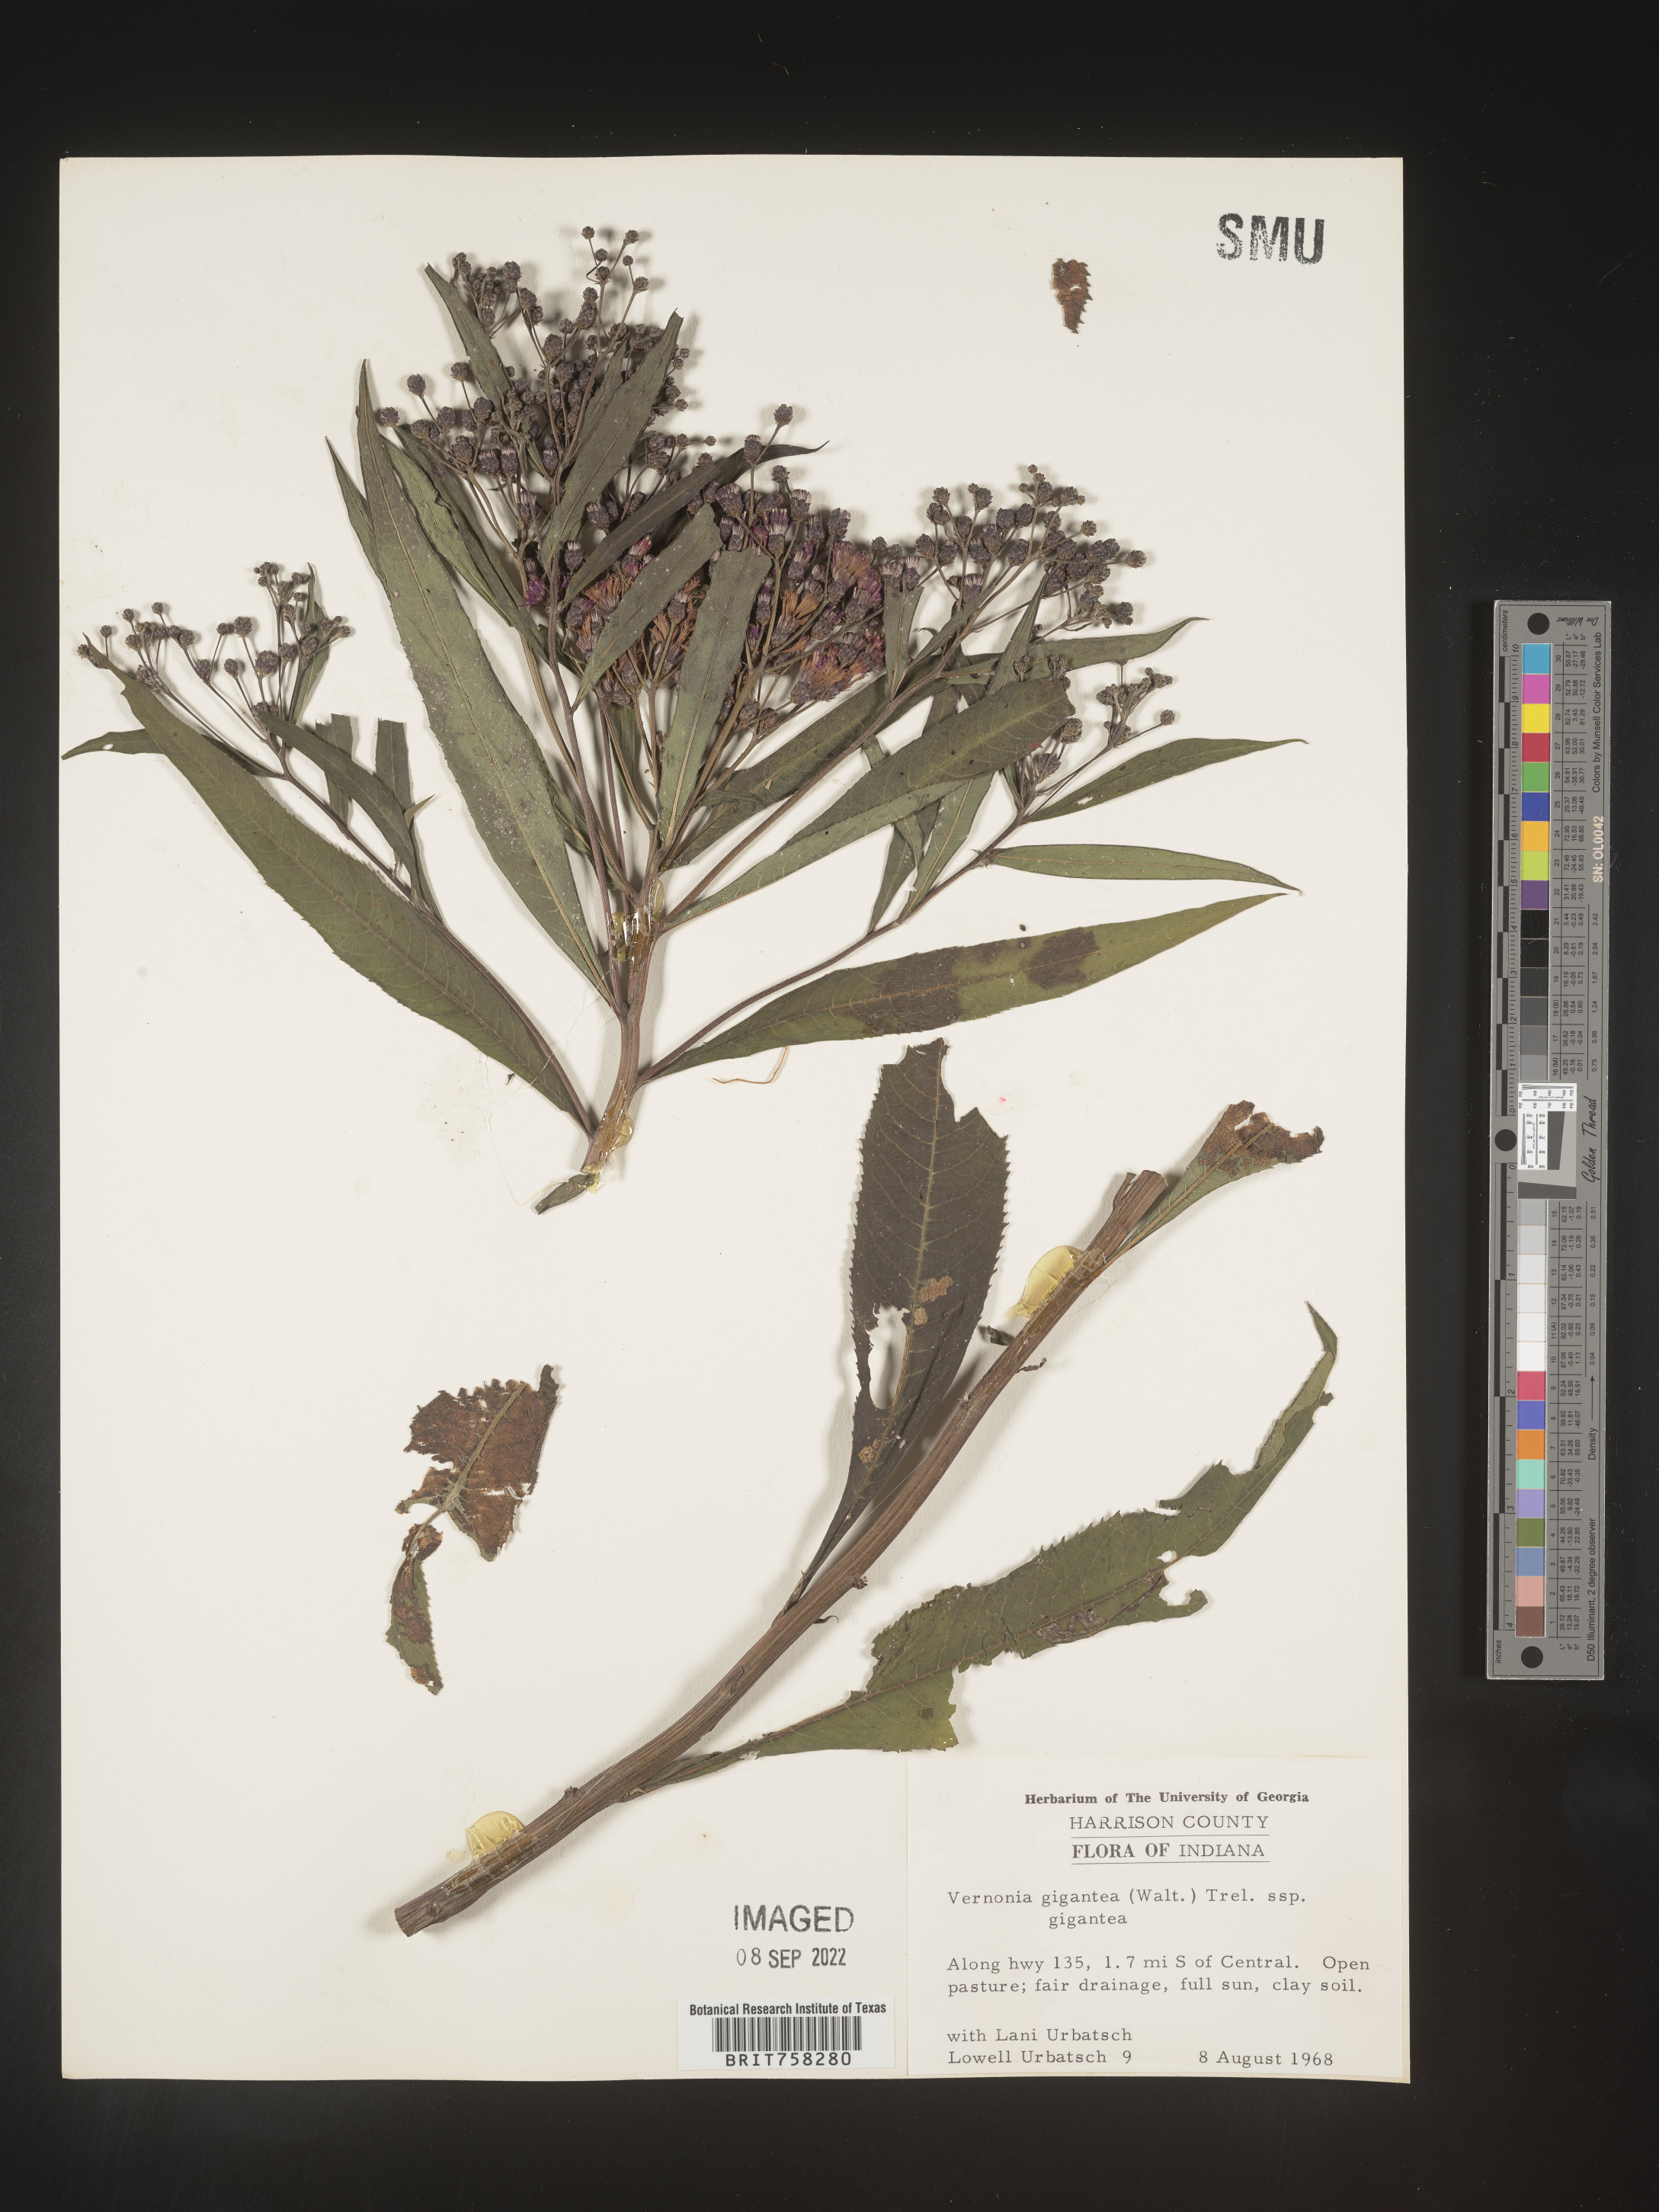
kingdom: Plantae
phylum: Tracheophyta
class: Magnoliopsida
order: Asterales
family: Asteraceae
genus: Vernonia
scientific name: Vernonia gigantea
